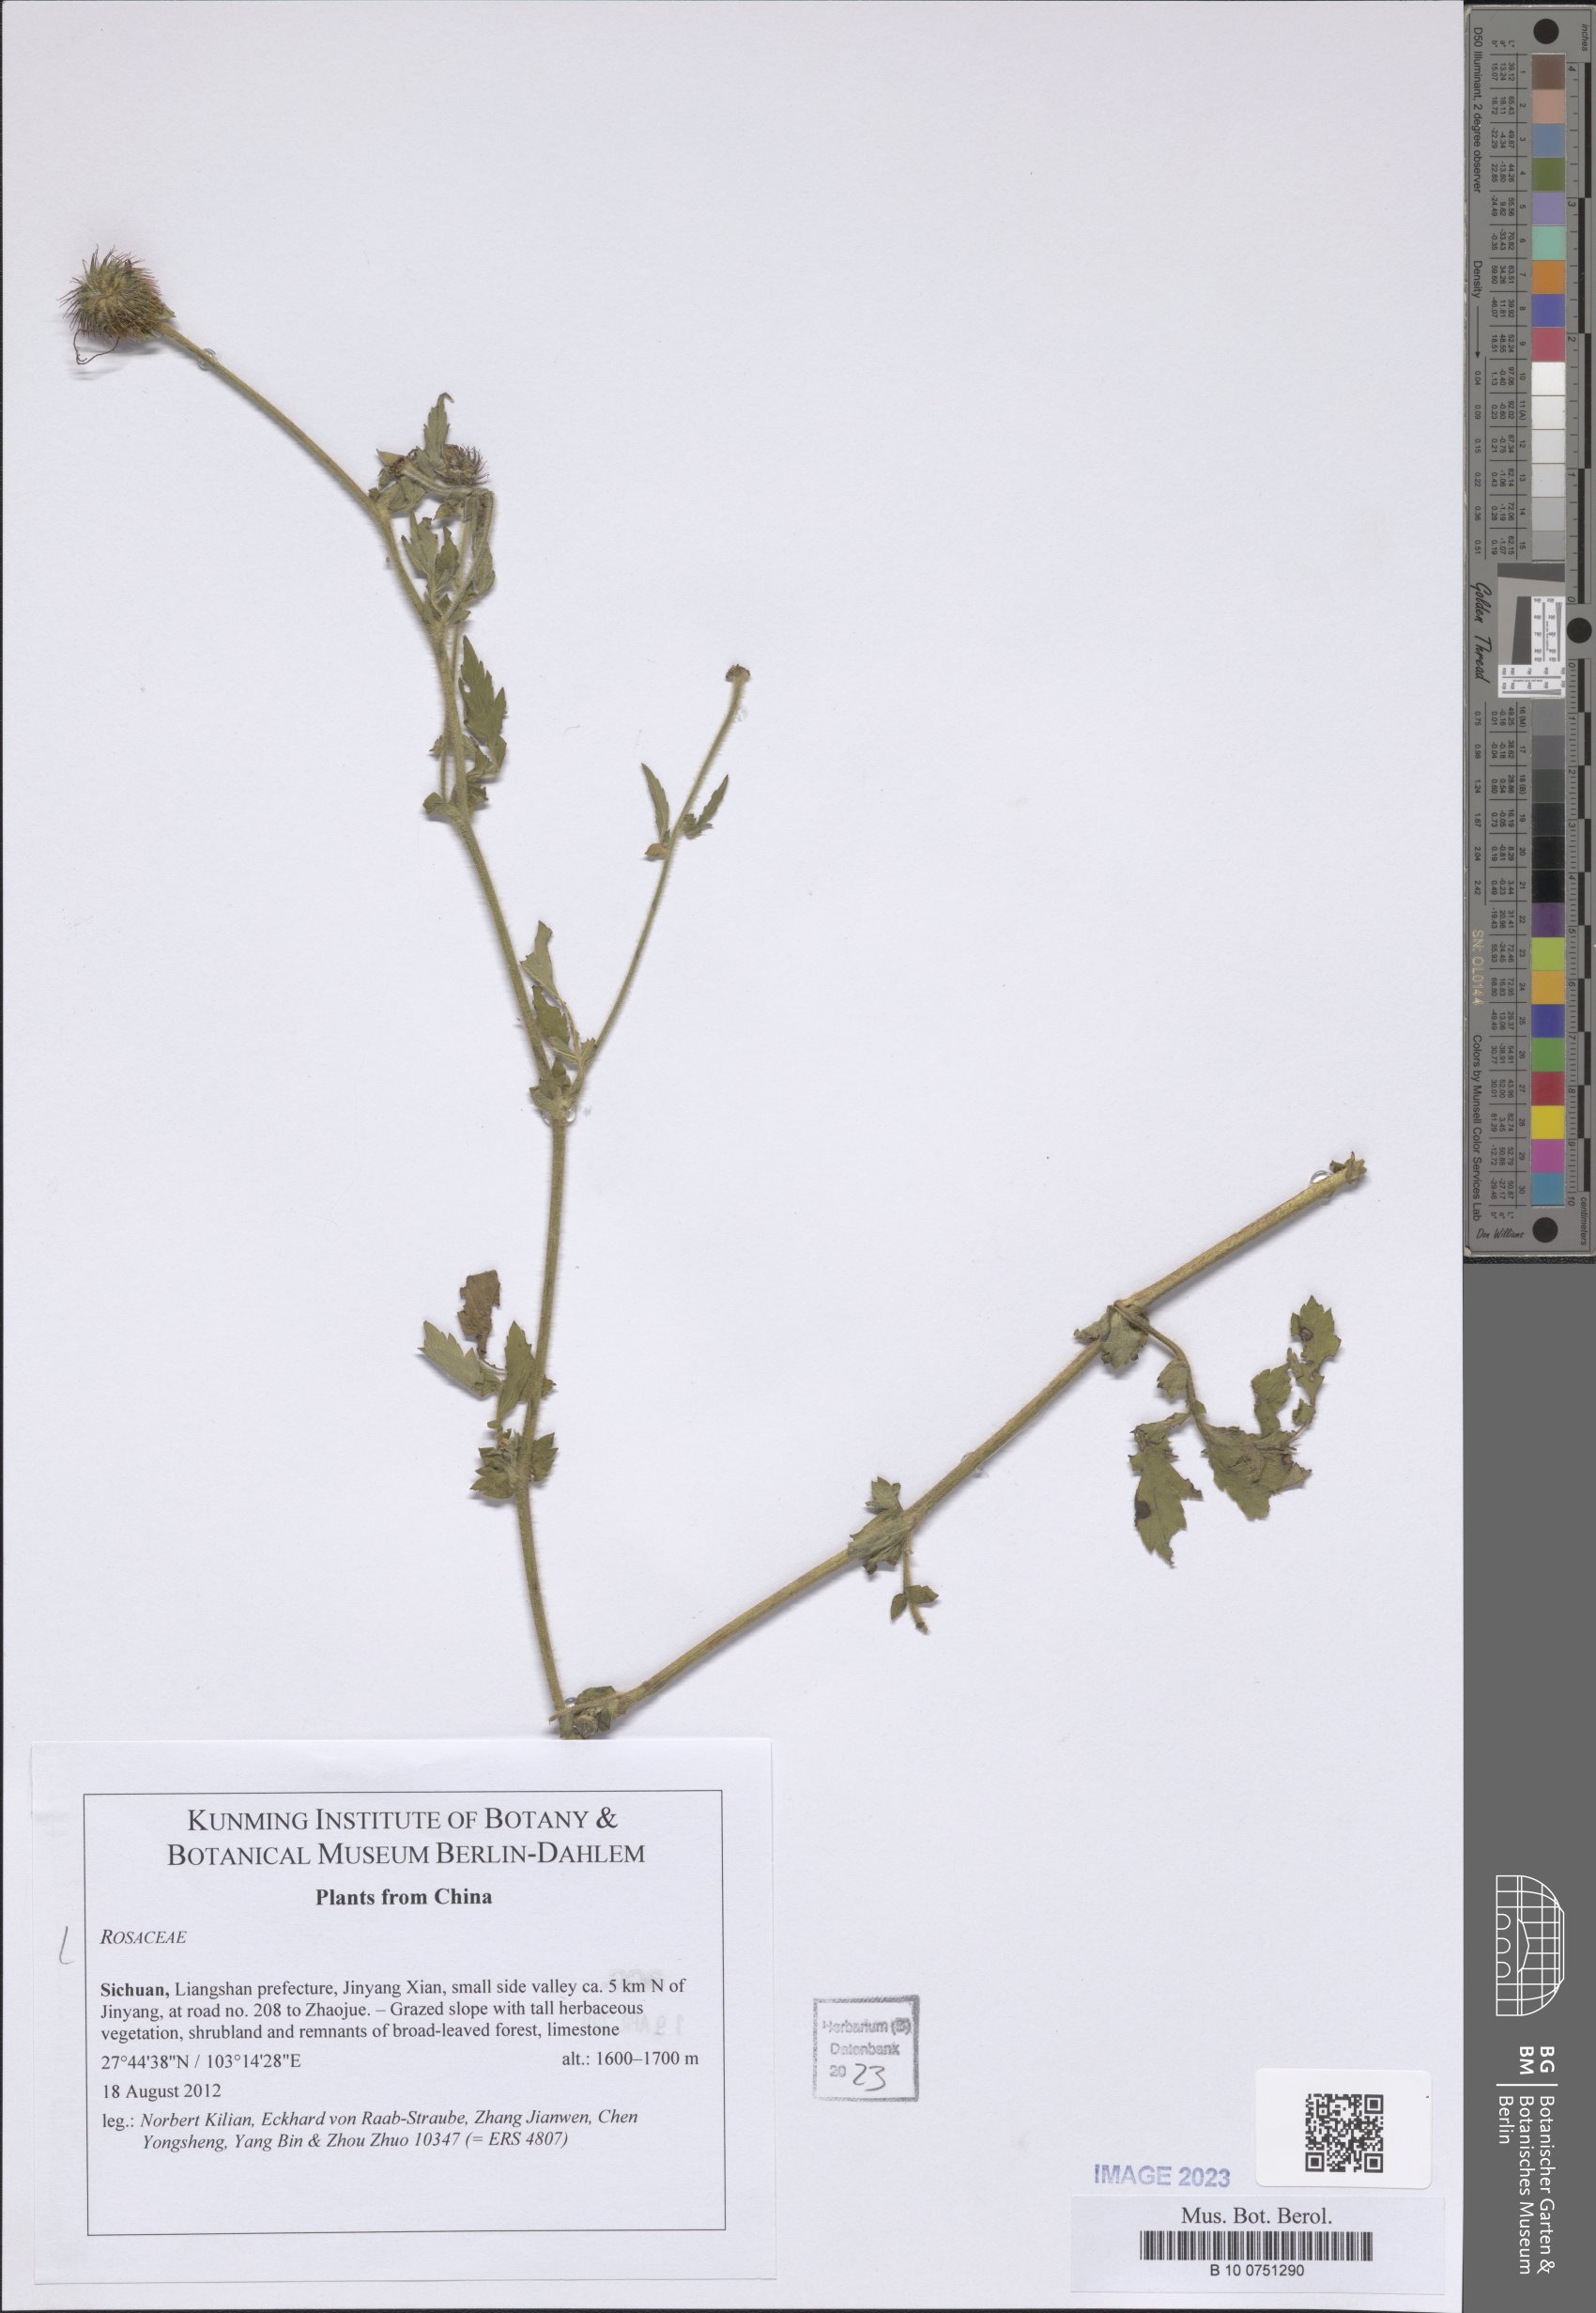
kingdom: Plantae
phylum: Tracheophyta
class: Magnoliopsida
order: Rosales
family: Rosaceae
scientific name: Rosaceae
